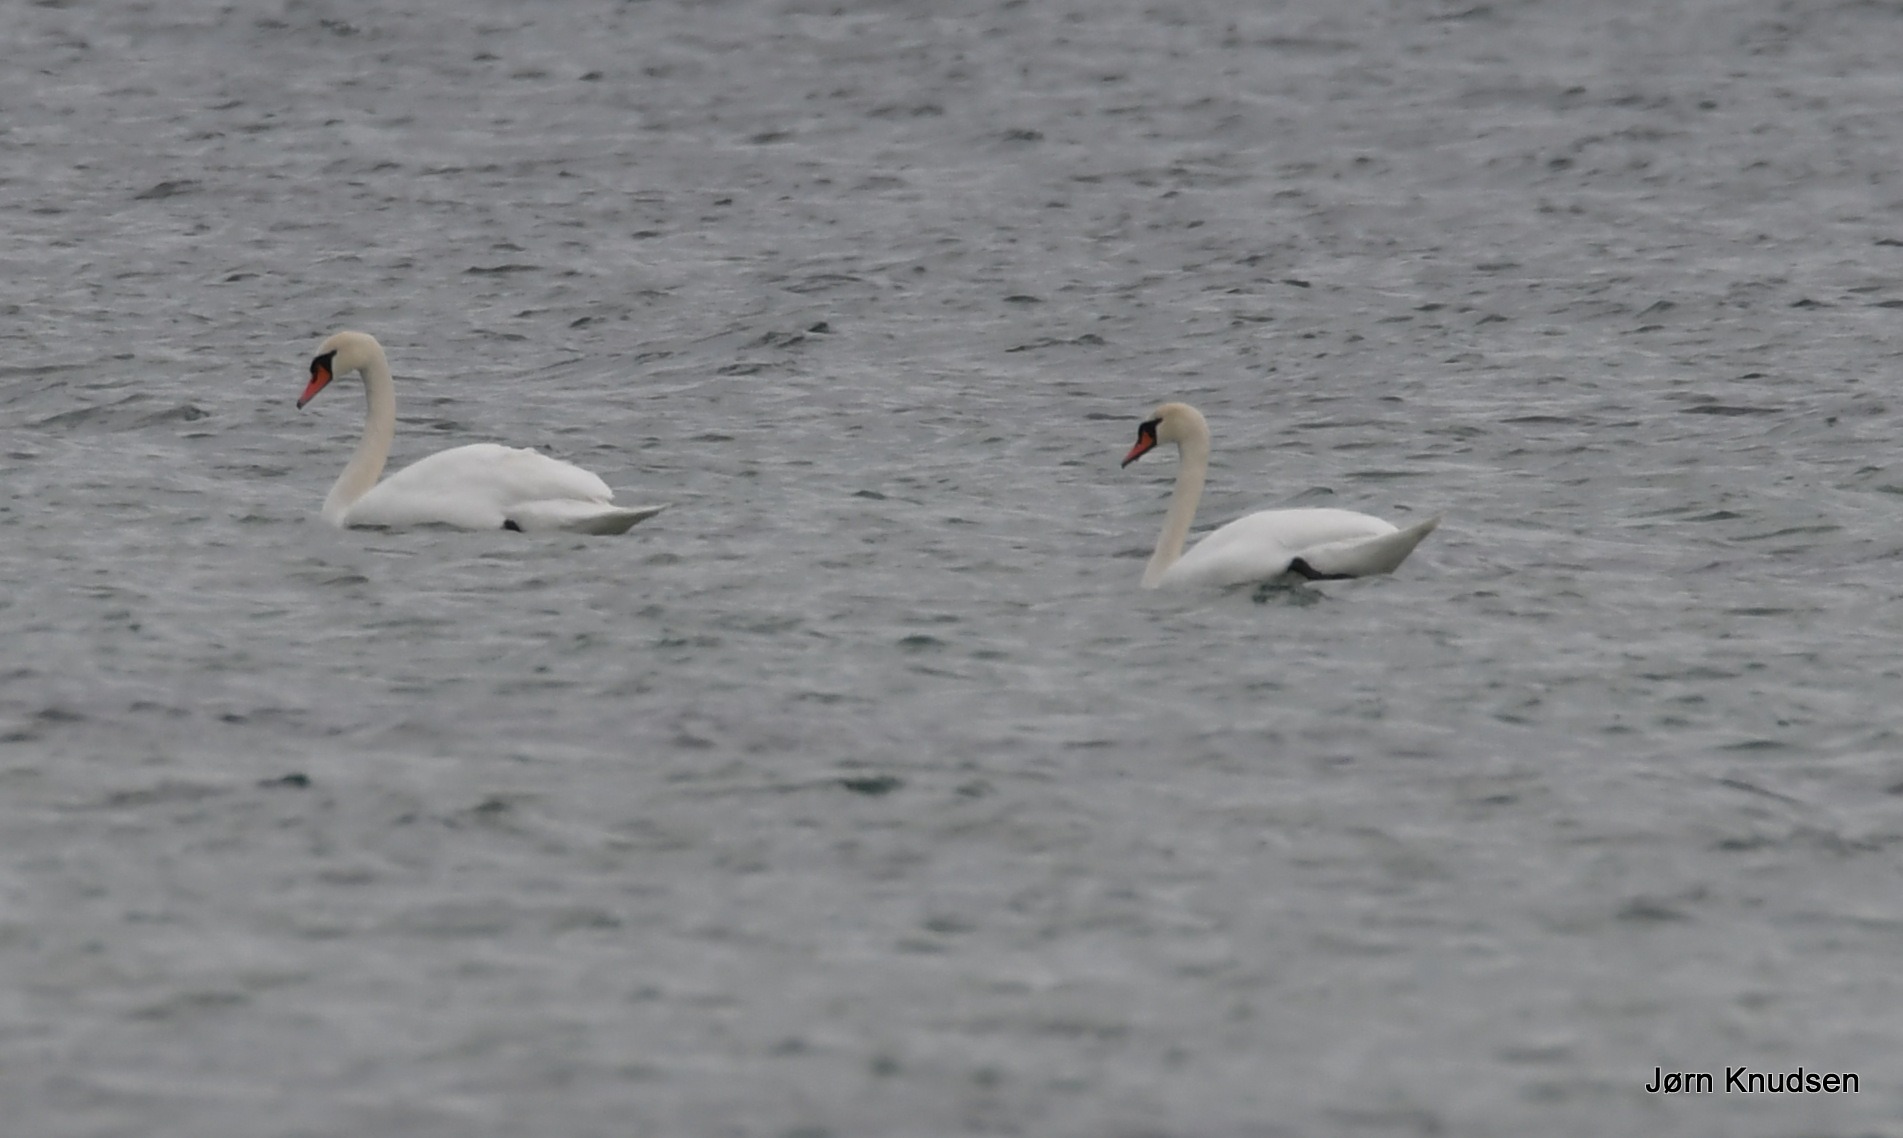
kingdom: Animalia
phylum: Chordata
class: Aves
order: Anseriformes
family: Anatidae
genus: Cygnus
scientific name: Cygnus olor
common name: Knopsvane
